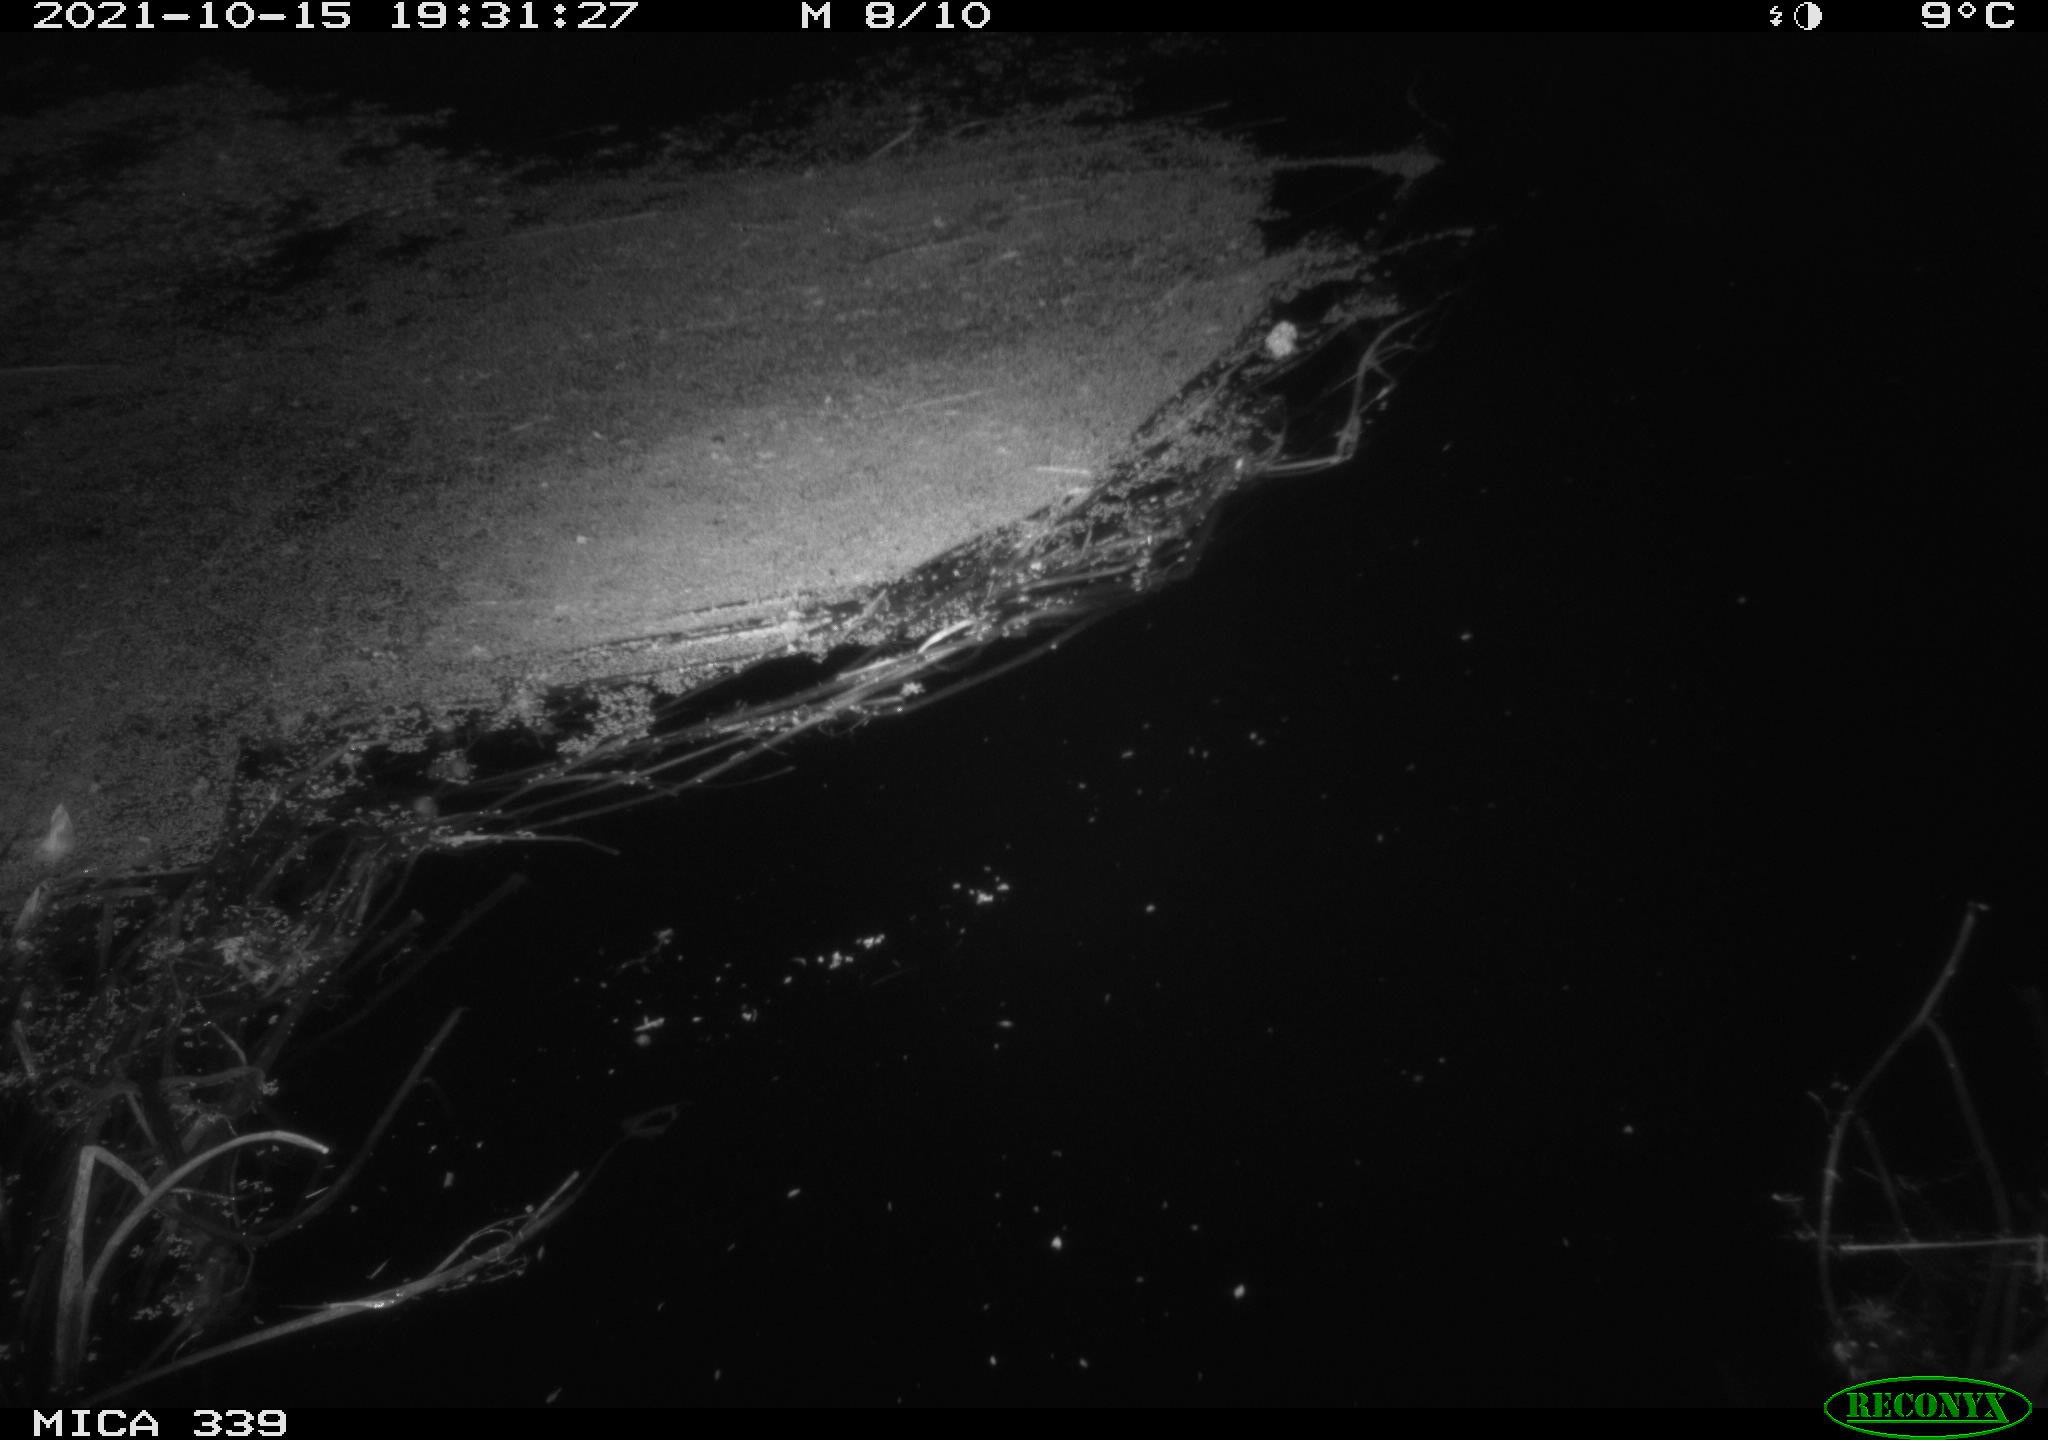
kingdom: Animalia
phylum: Chordata
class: Mammalia
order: Rodentia
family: Muridae
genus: Rattus
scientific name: Rattus norvegicus
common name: Brown rat
